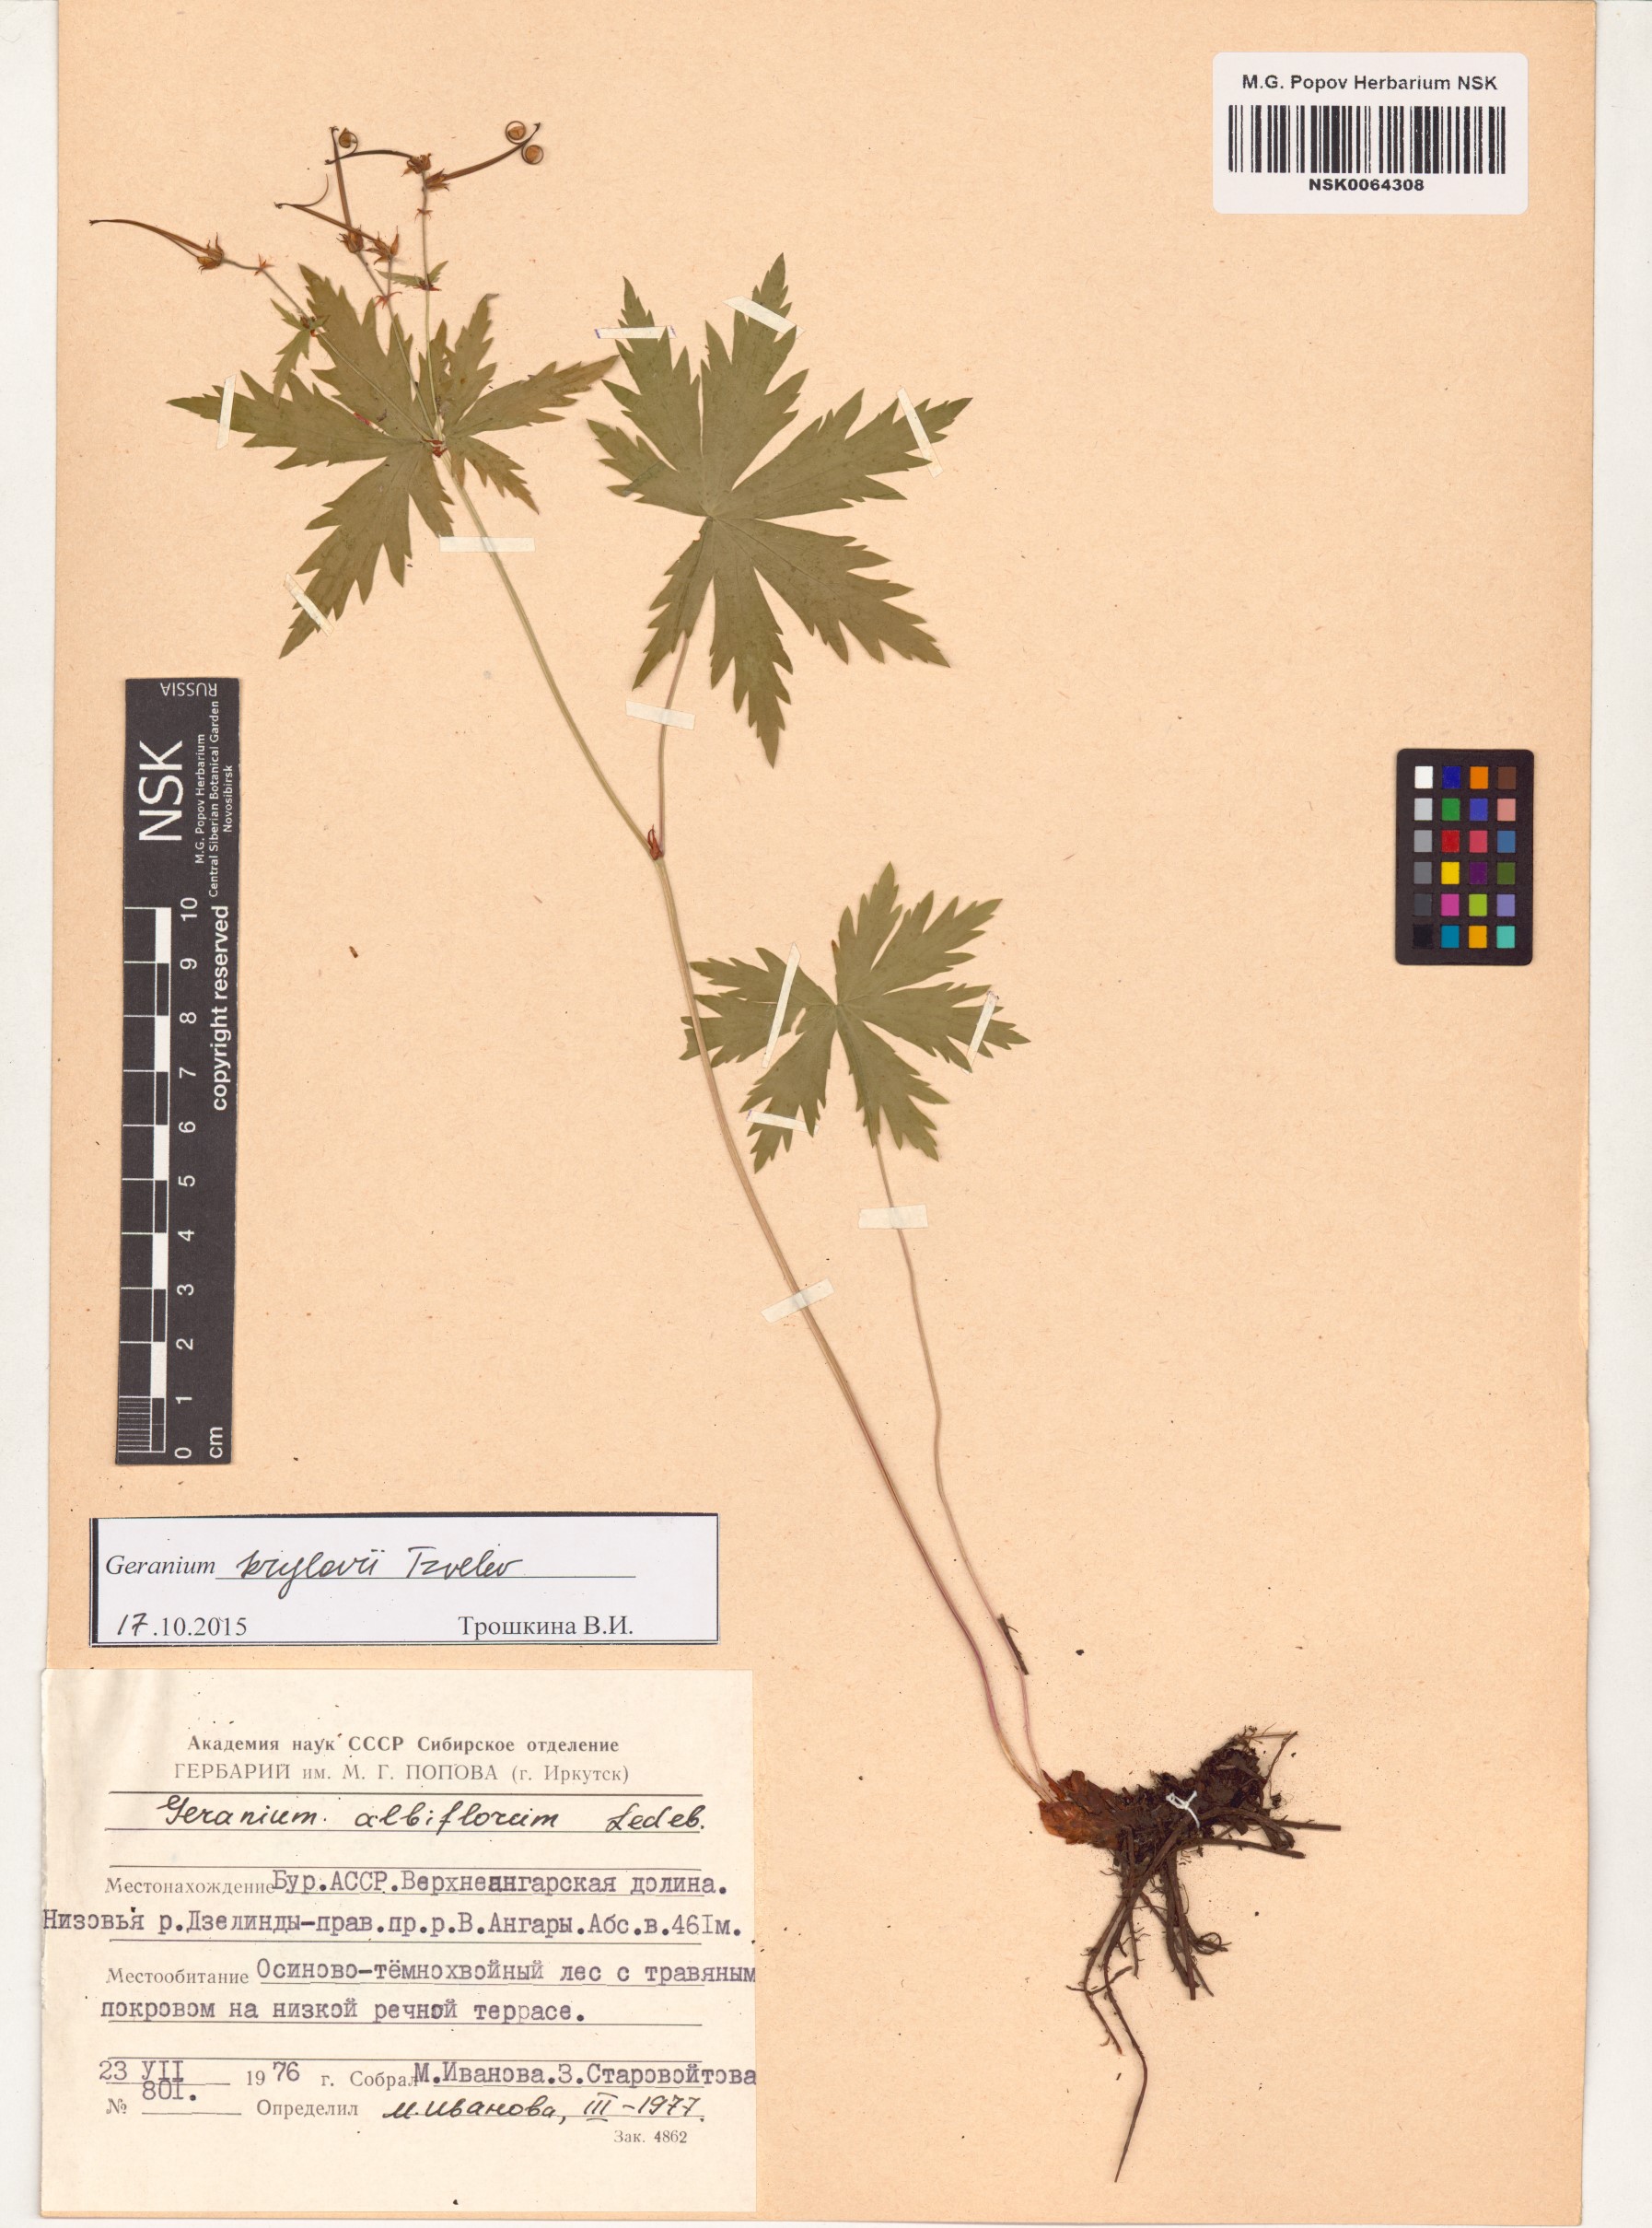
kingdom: Plantae
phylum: Tracheophyta
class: Magnoliopsida
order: Geraniales
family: Geraniaceae
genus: Geranium
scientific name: Geranium sylvaticum
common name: Wood crane's-bill
